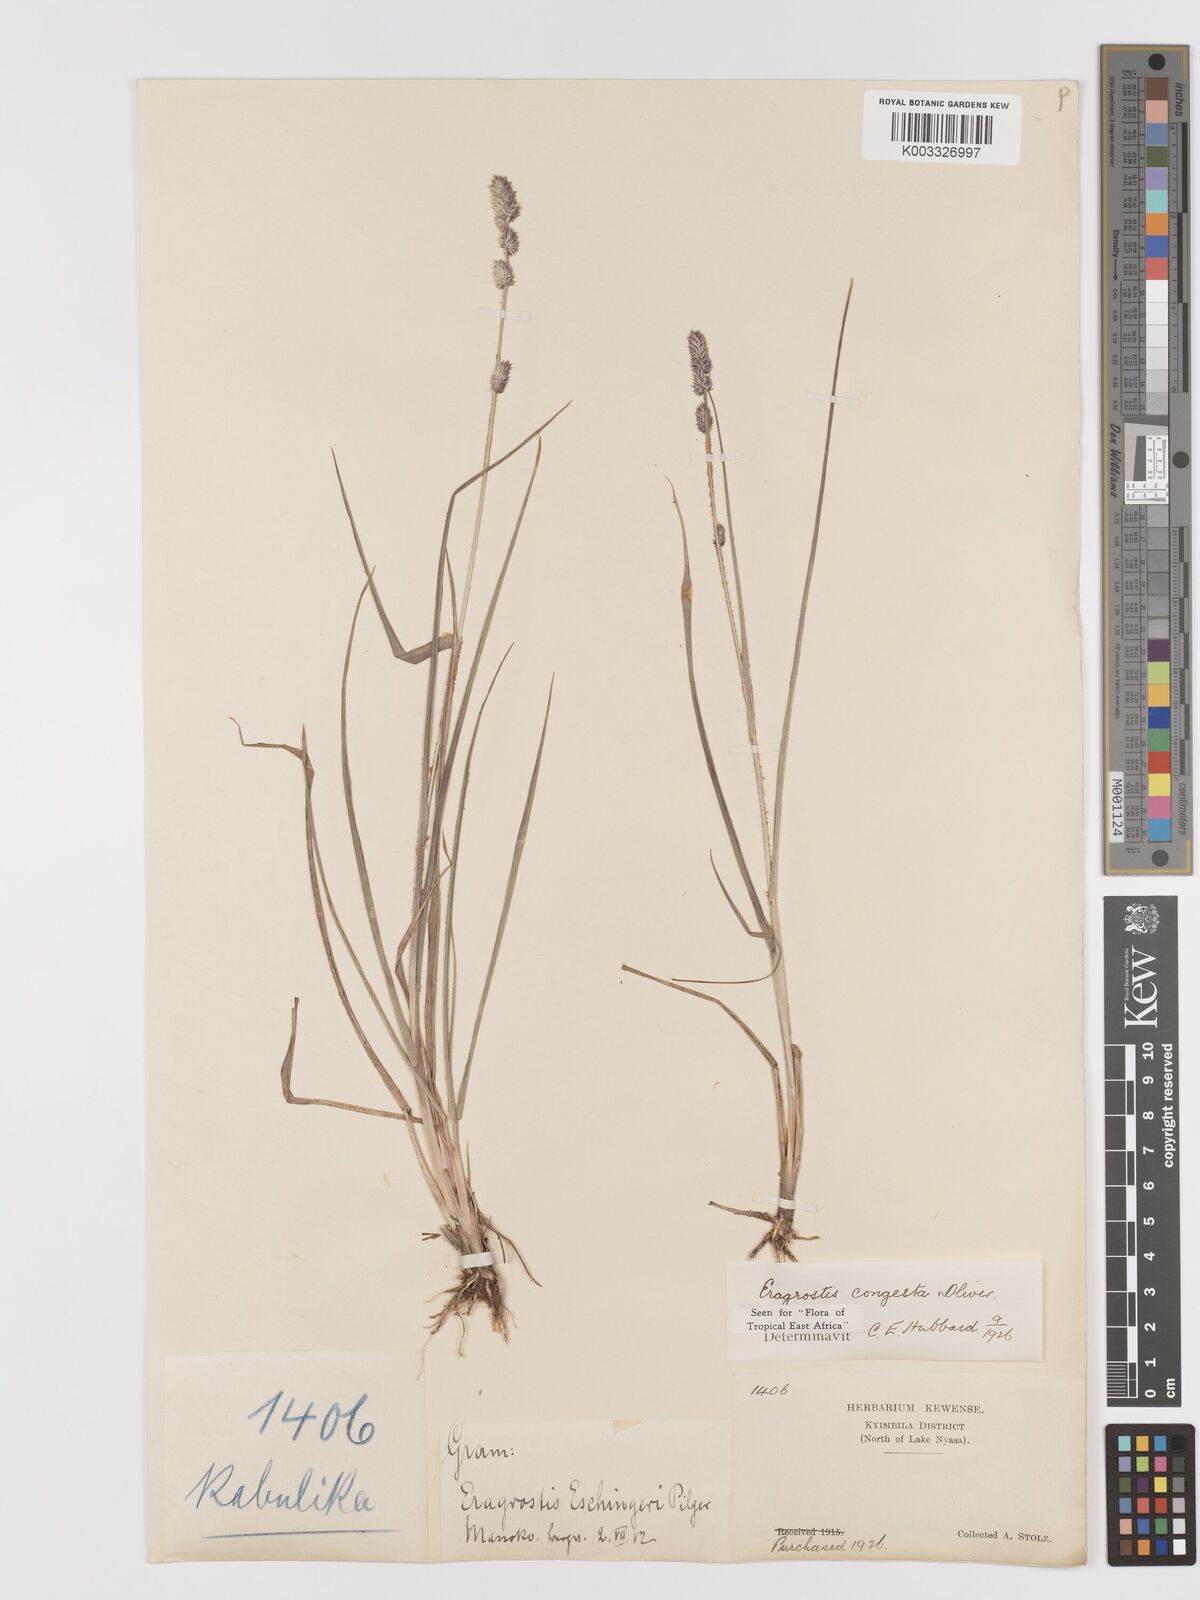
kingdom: Plantae
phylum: Tracheophyta
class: Liliopsida
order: Poales
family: Poaceae
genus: Eragrostis
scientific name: Eragrostis congesta
